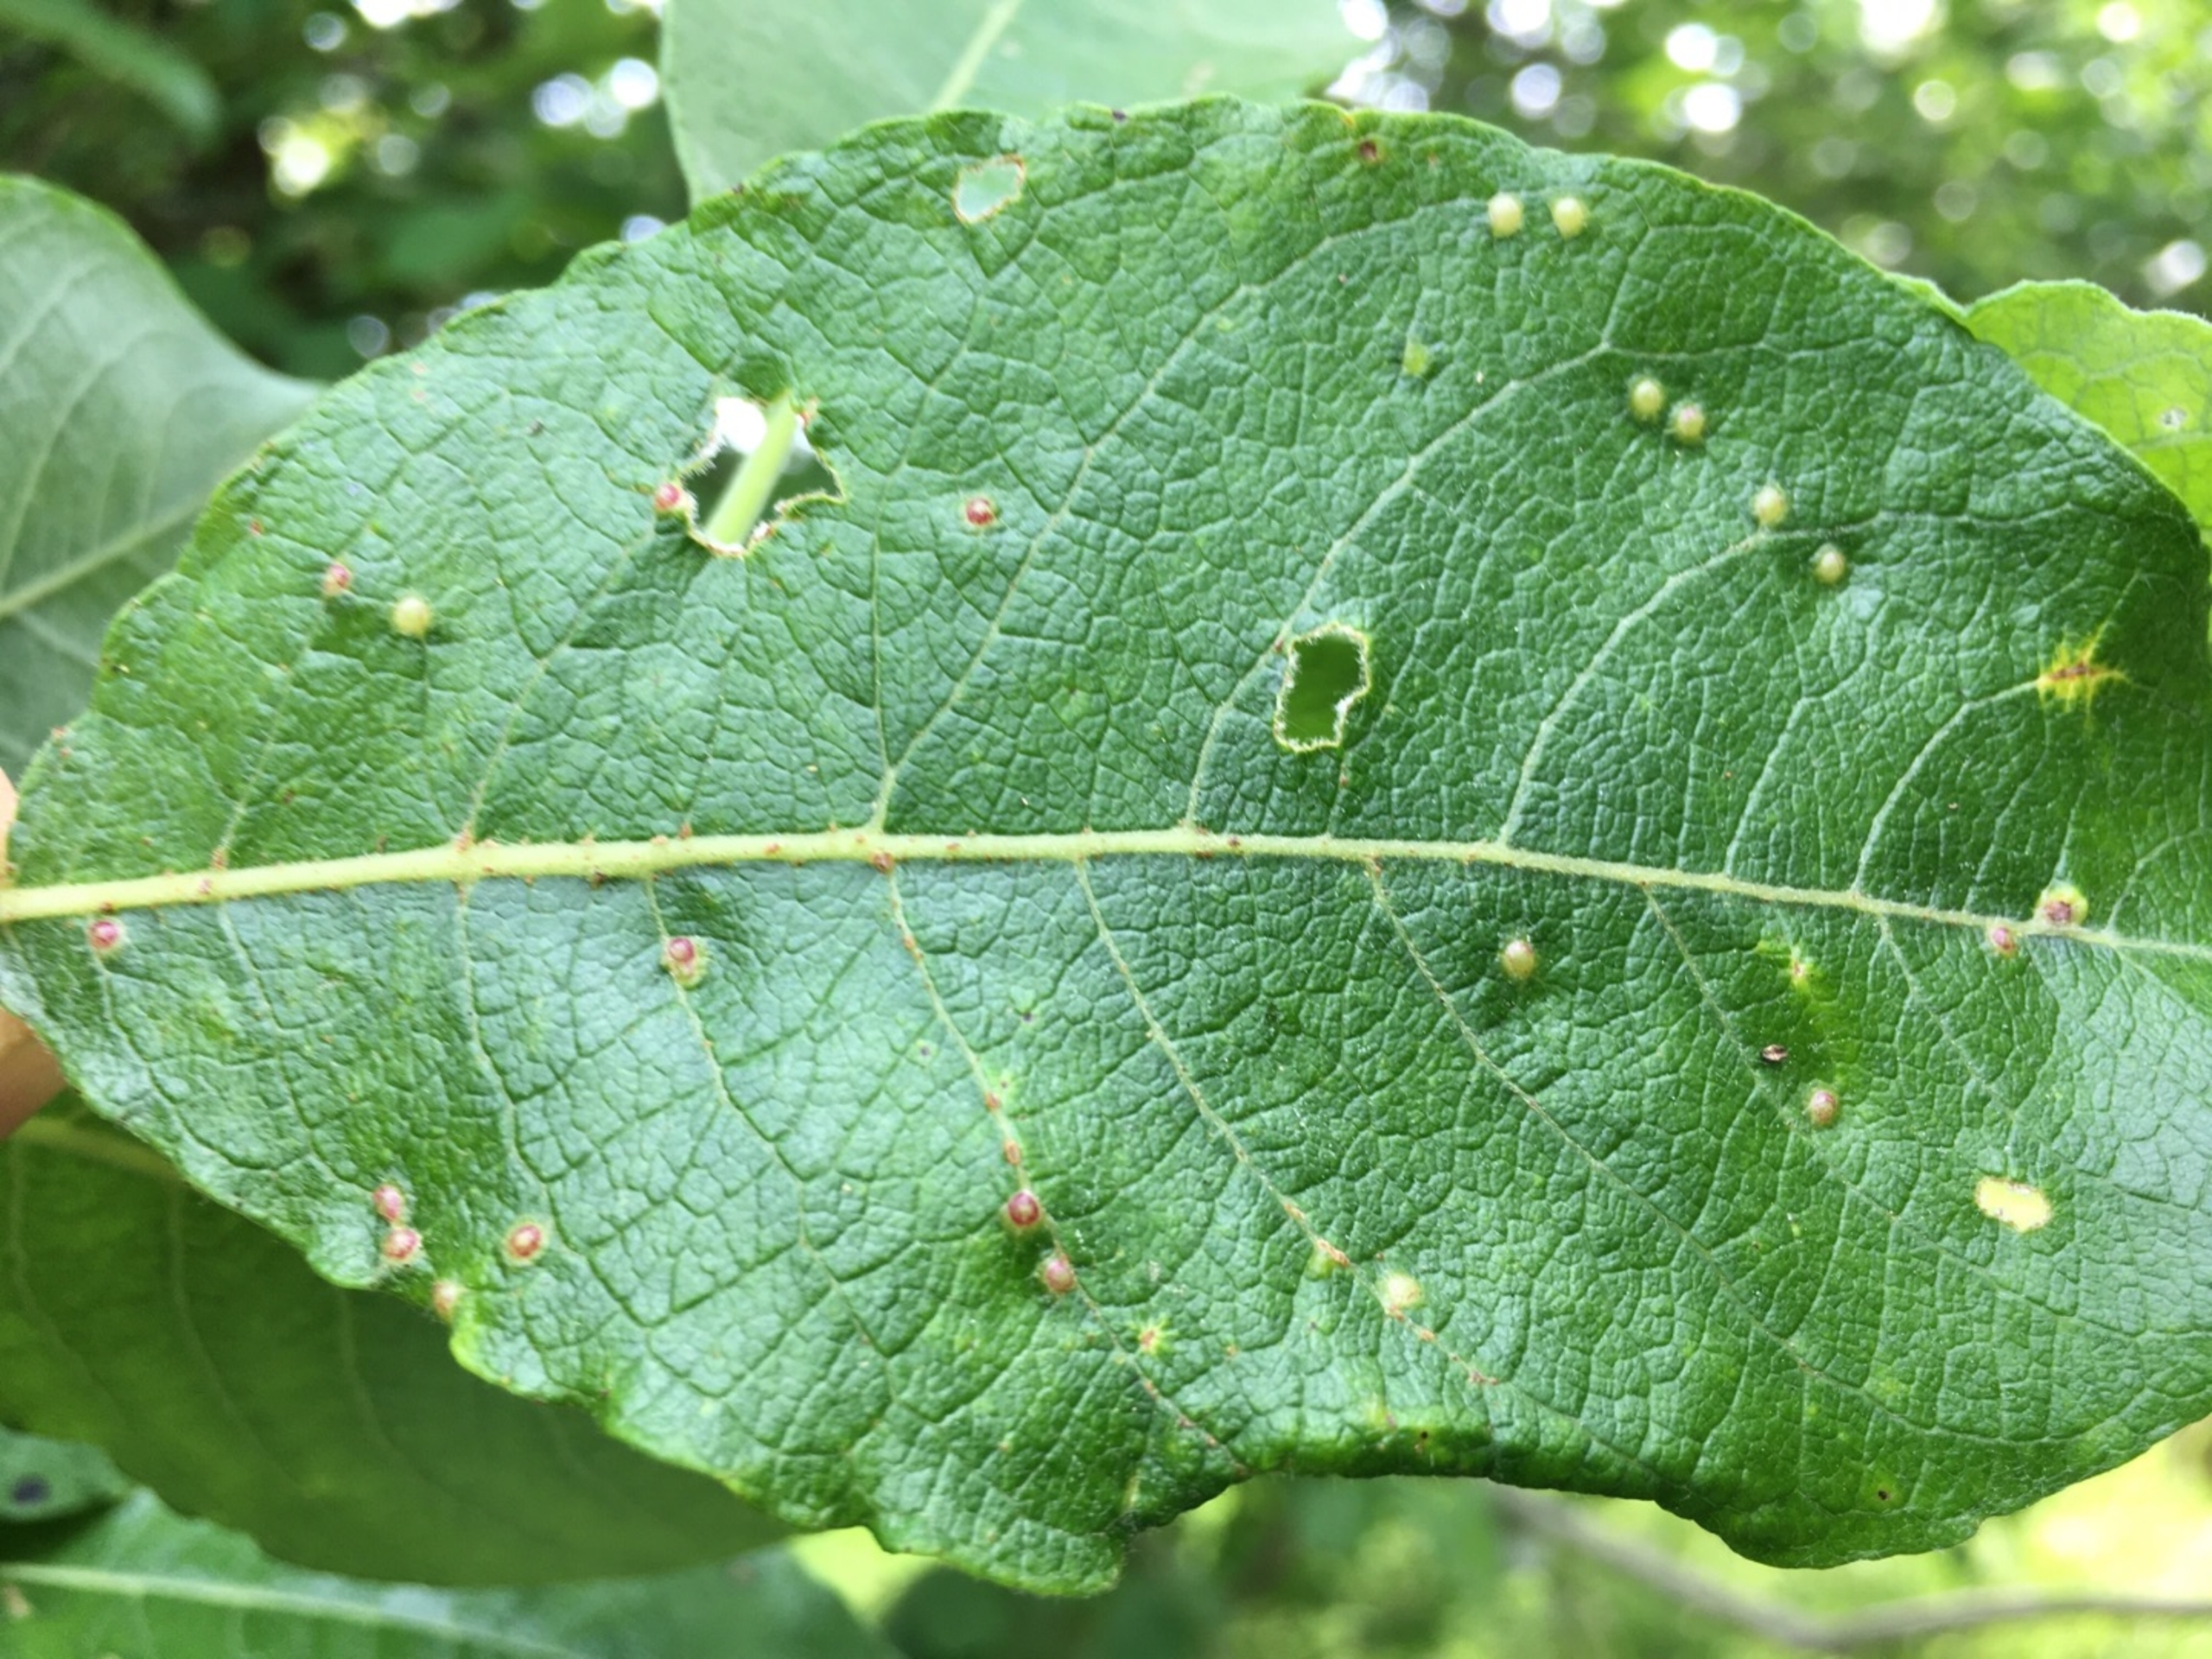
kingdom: Animalia
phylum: Arthropoda
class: Insecta
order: Diptera
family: Cecidomyiidae
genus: Iteomyia
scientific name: Iteomyia capreae
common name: Lille seljebladgalmyg
